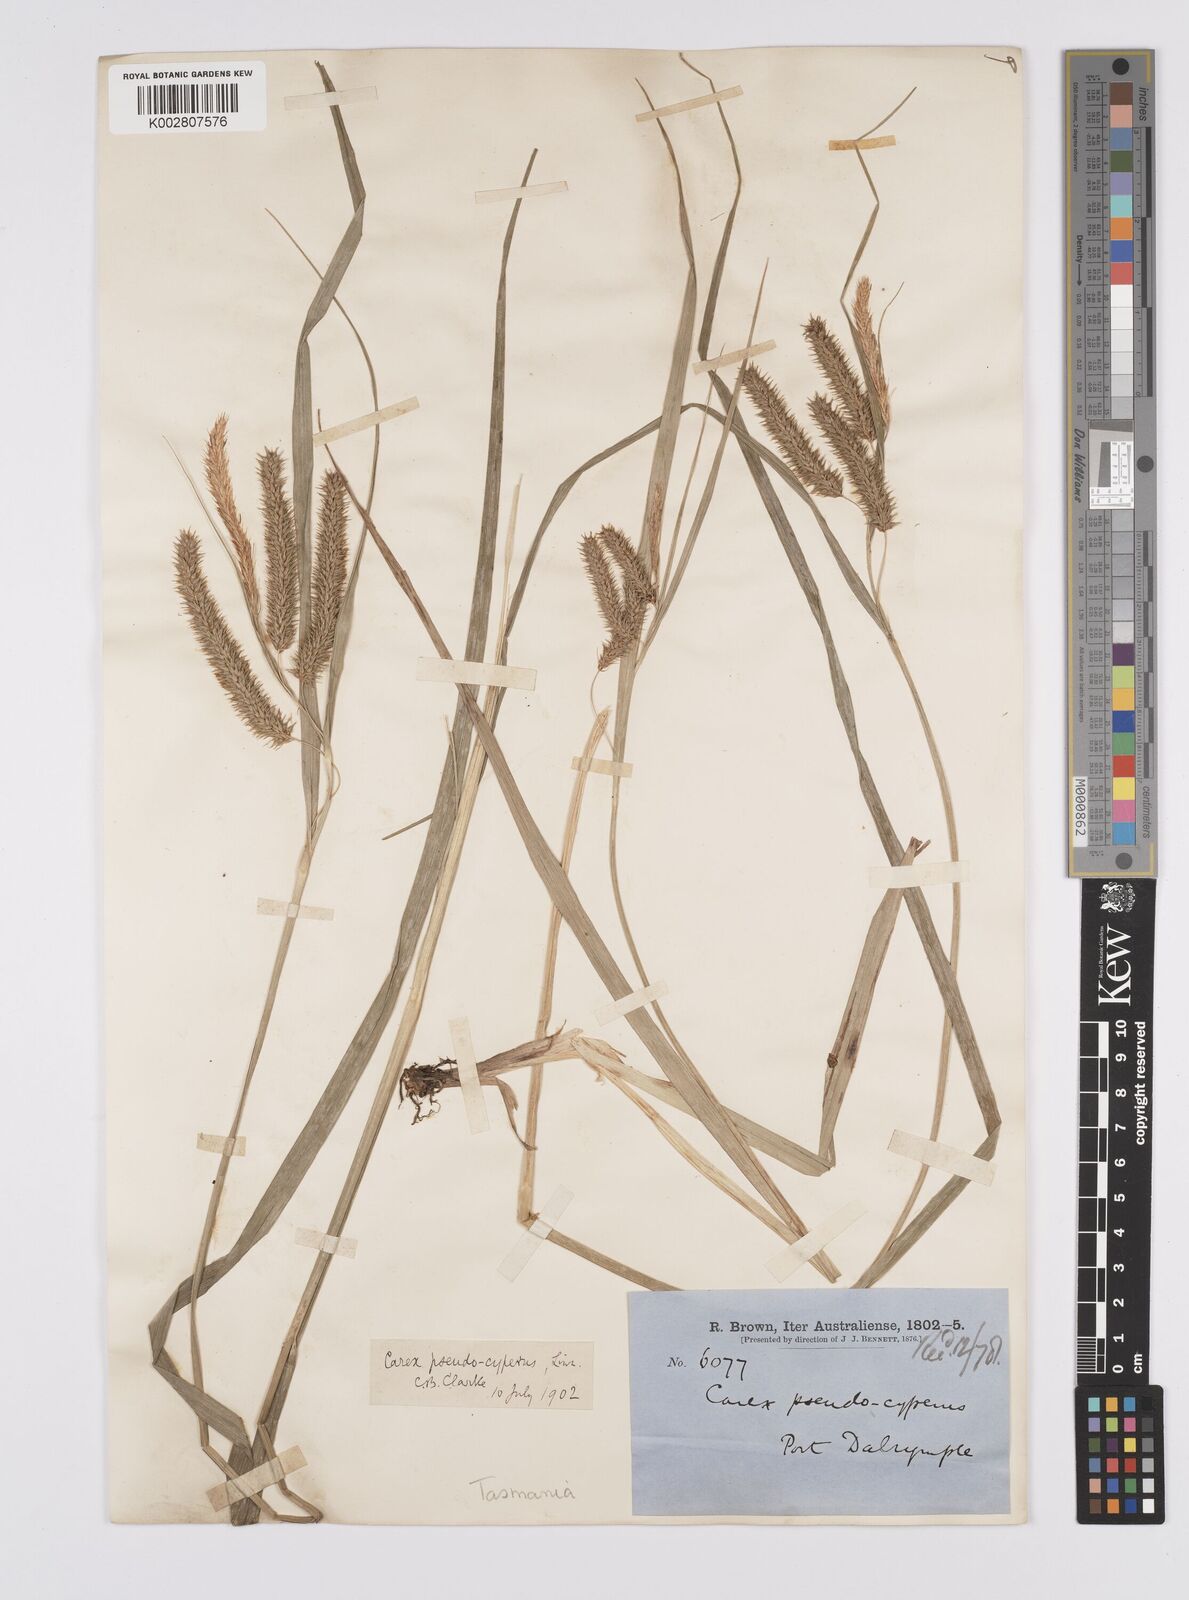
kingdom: Plantae
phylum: Tracheophyta
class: Liliopsida
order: Poales
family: Cyperaceae
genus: Carex
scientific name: Carex fascicularis
